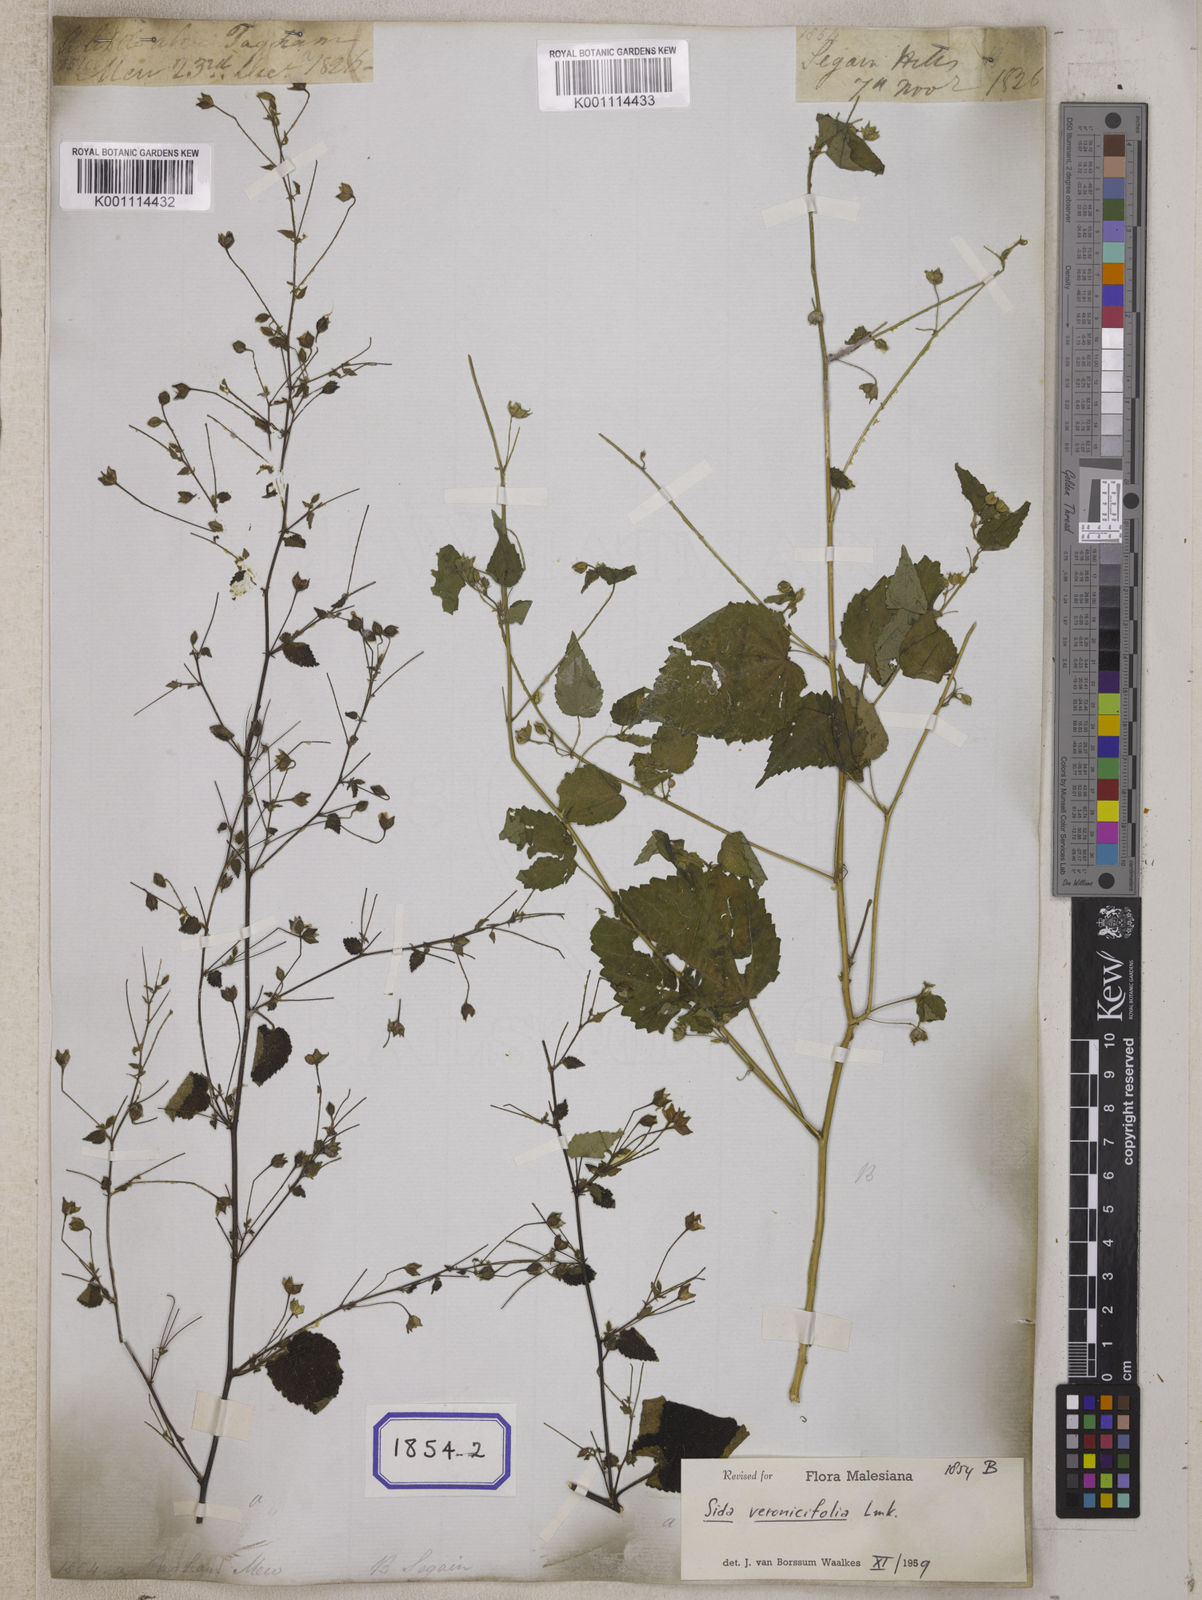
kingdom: Plantae
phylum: Tracheophyta
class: Magnoliopsida
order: Malvales
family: Malvaceae
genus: Sida
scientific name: Sida cordata
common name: Long-stalk sida
